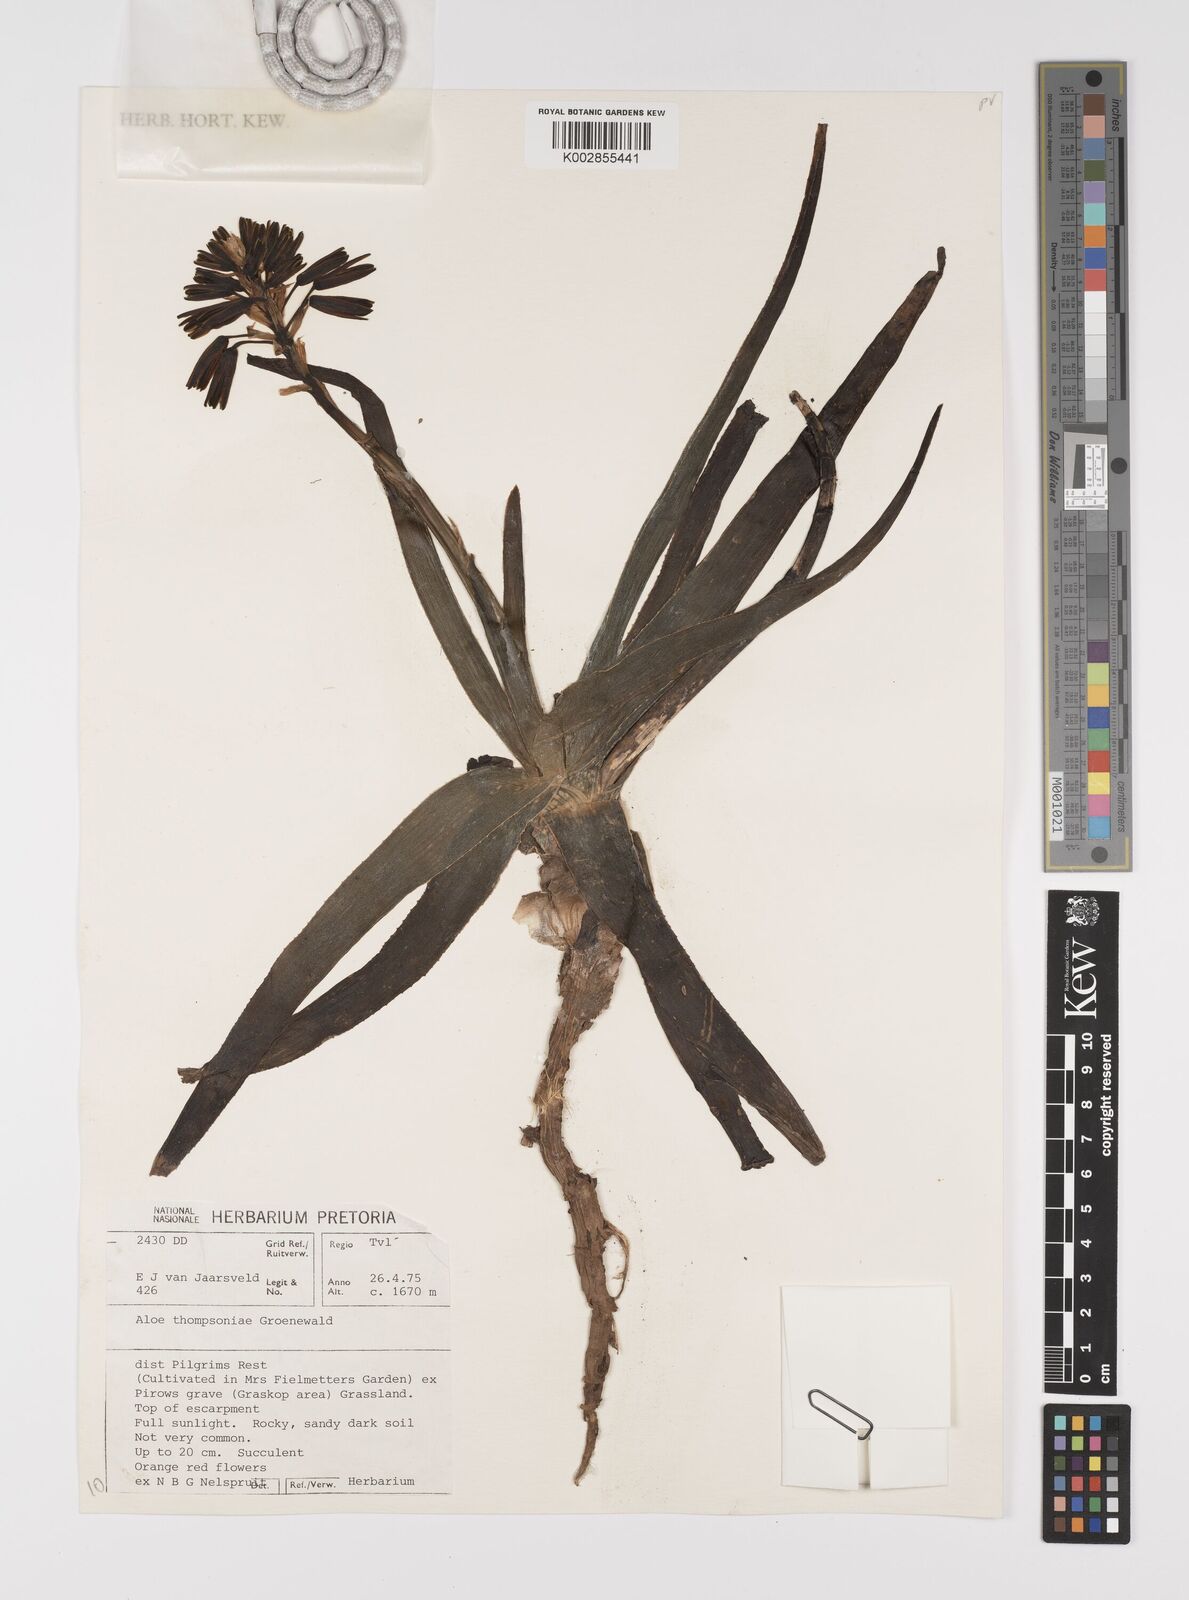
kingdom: Plantae
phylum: Tracheophyta
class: Liliopsida
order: Asparagales
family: Asphodelaceae
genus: Aloe
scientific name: Aloe thompsoniae
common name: Thompson's aloe
